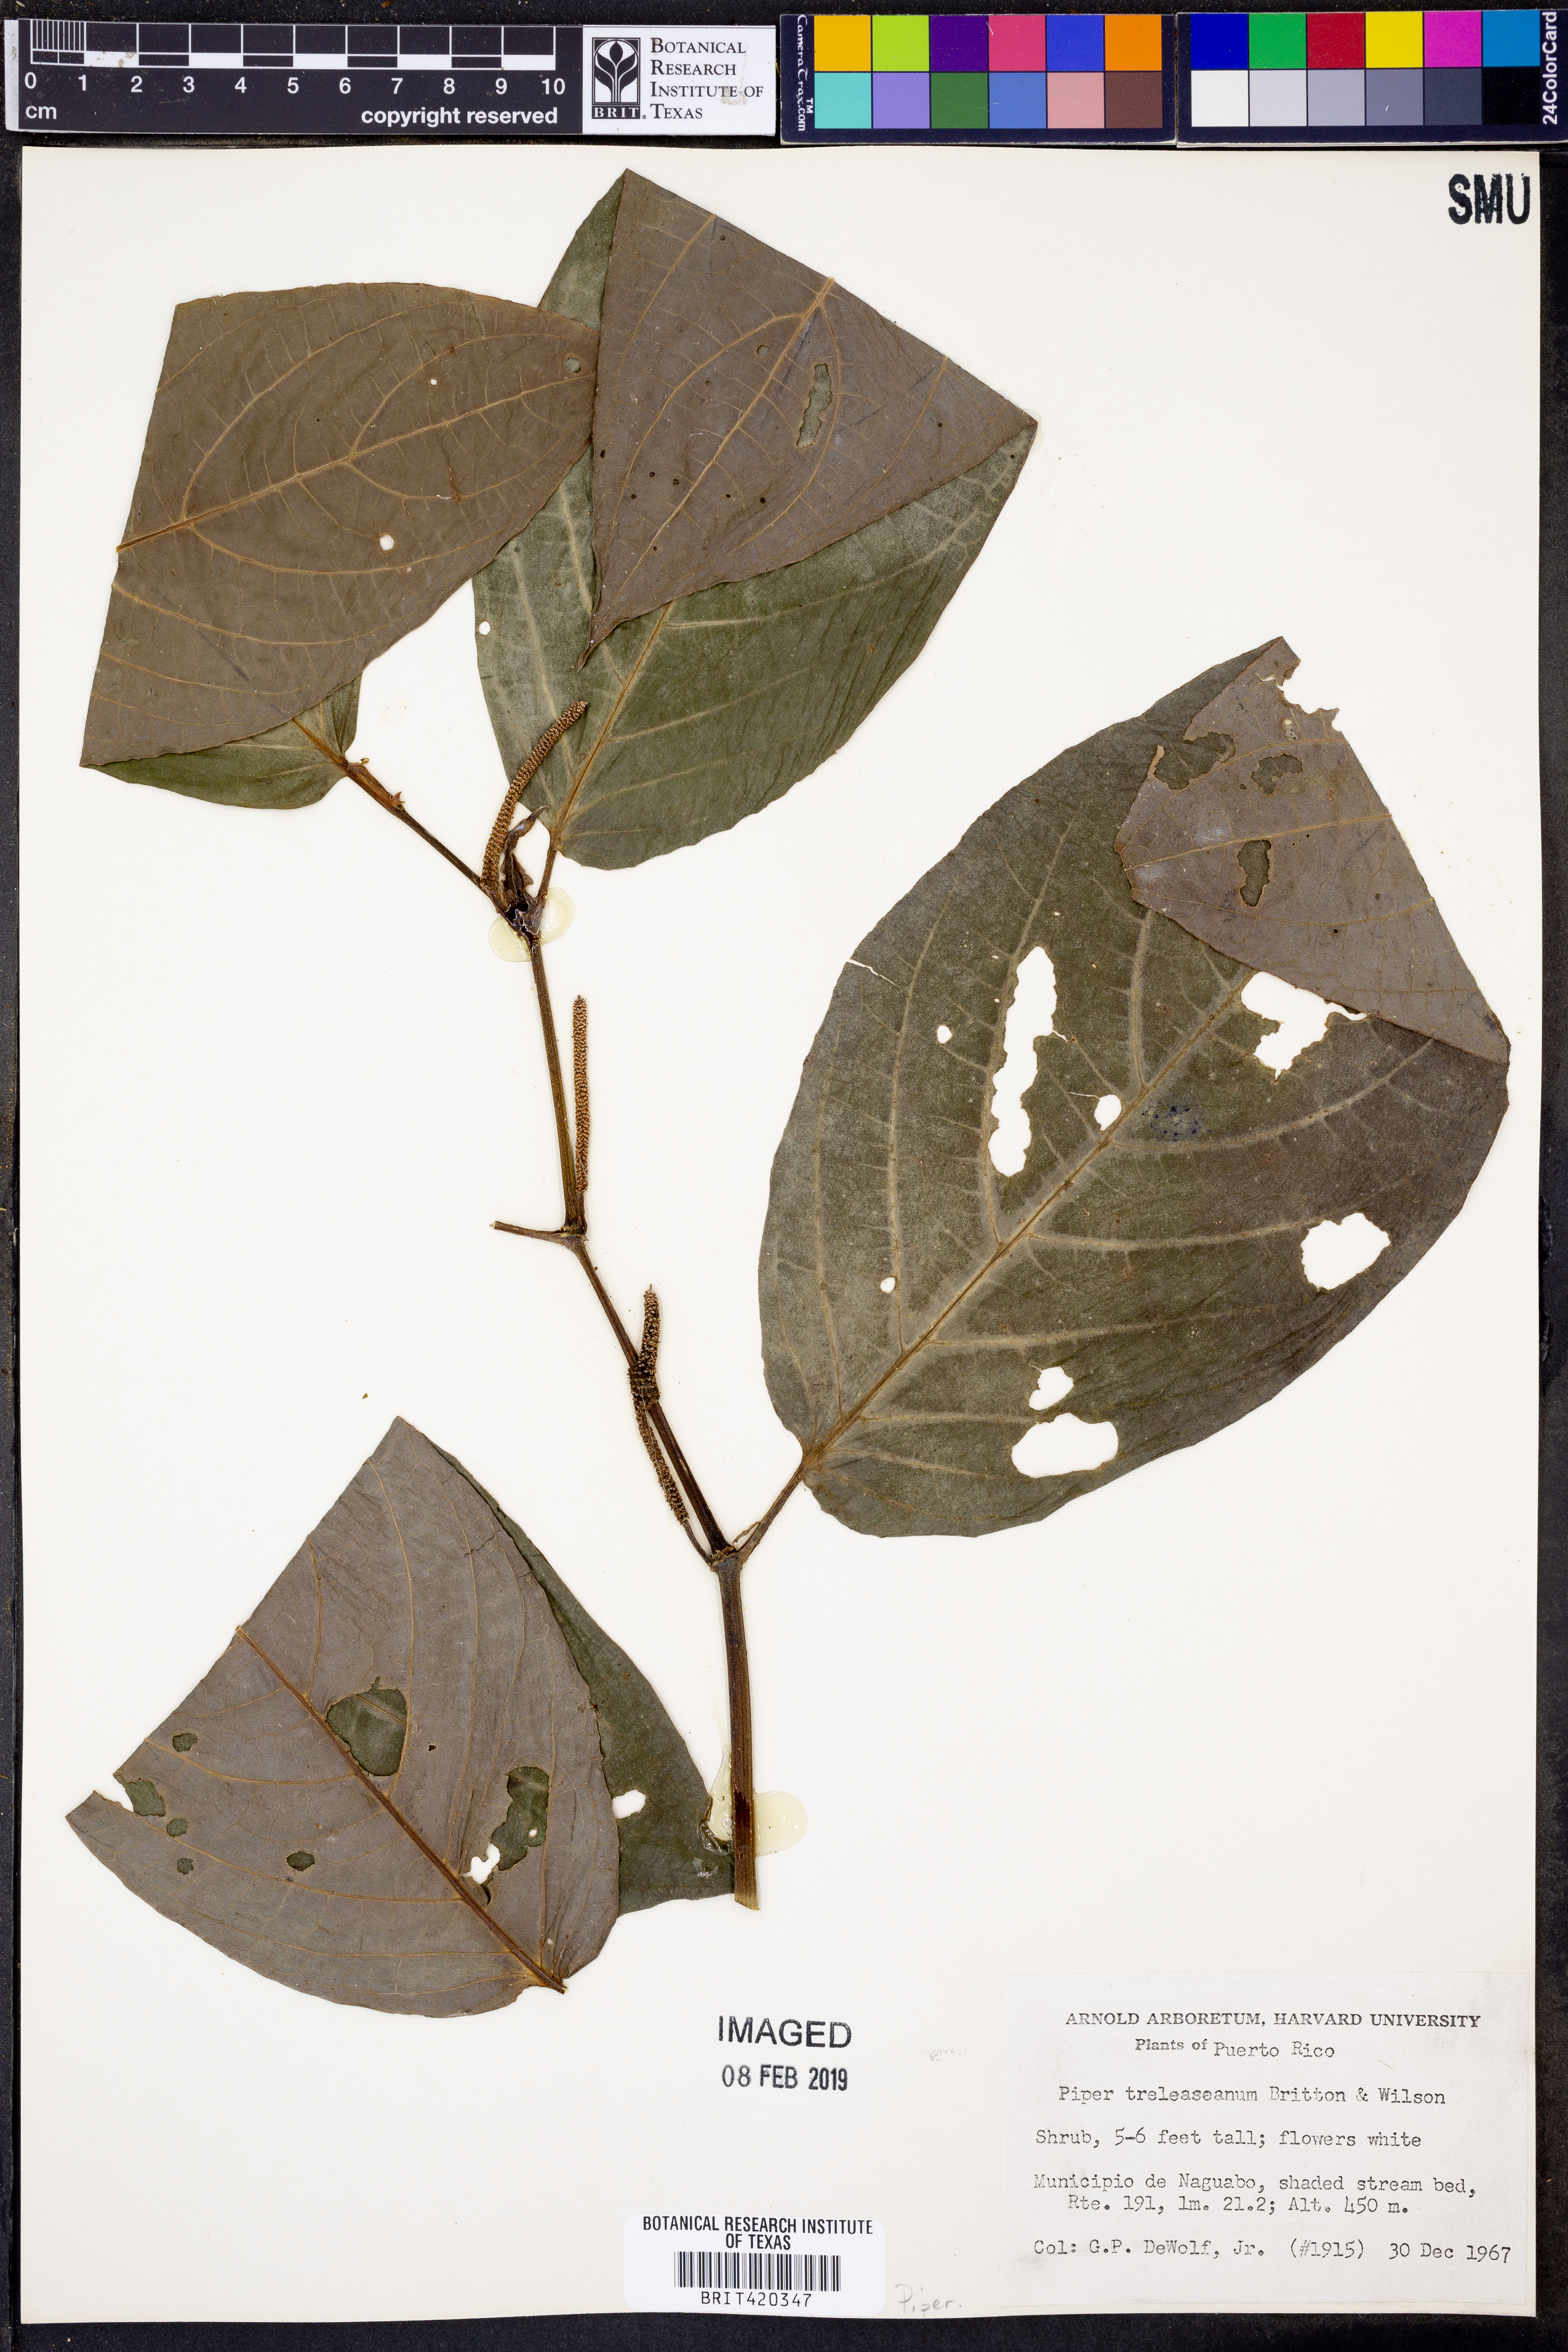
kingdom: Plantae
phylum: Tracheophyta
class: Magnoliopsida
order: Piperales
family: Piperaceae
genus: Piper
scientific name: Piper glabrescens
